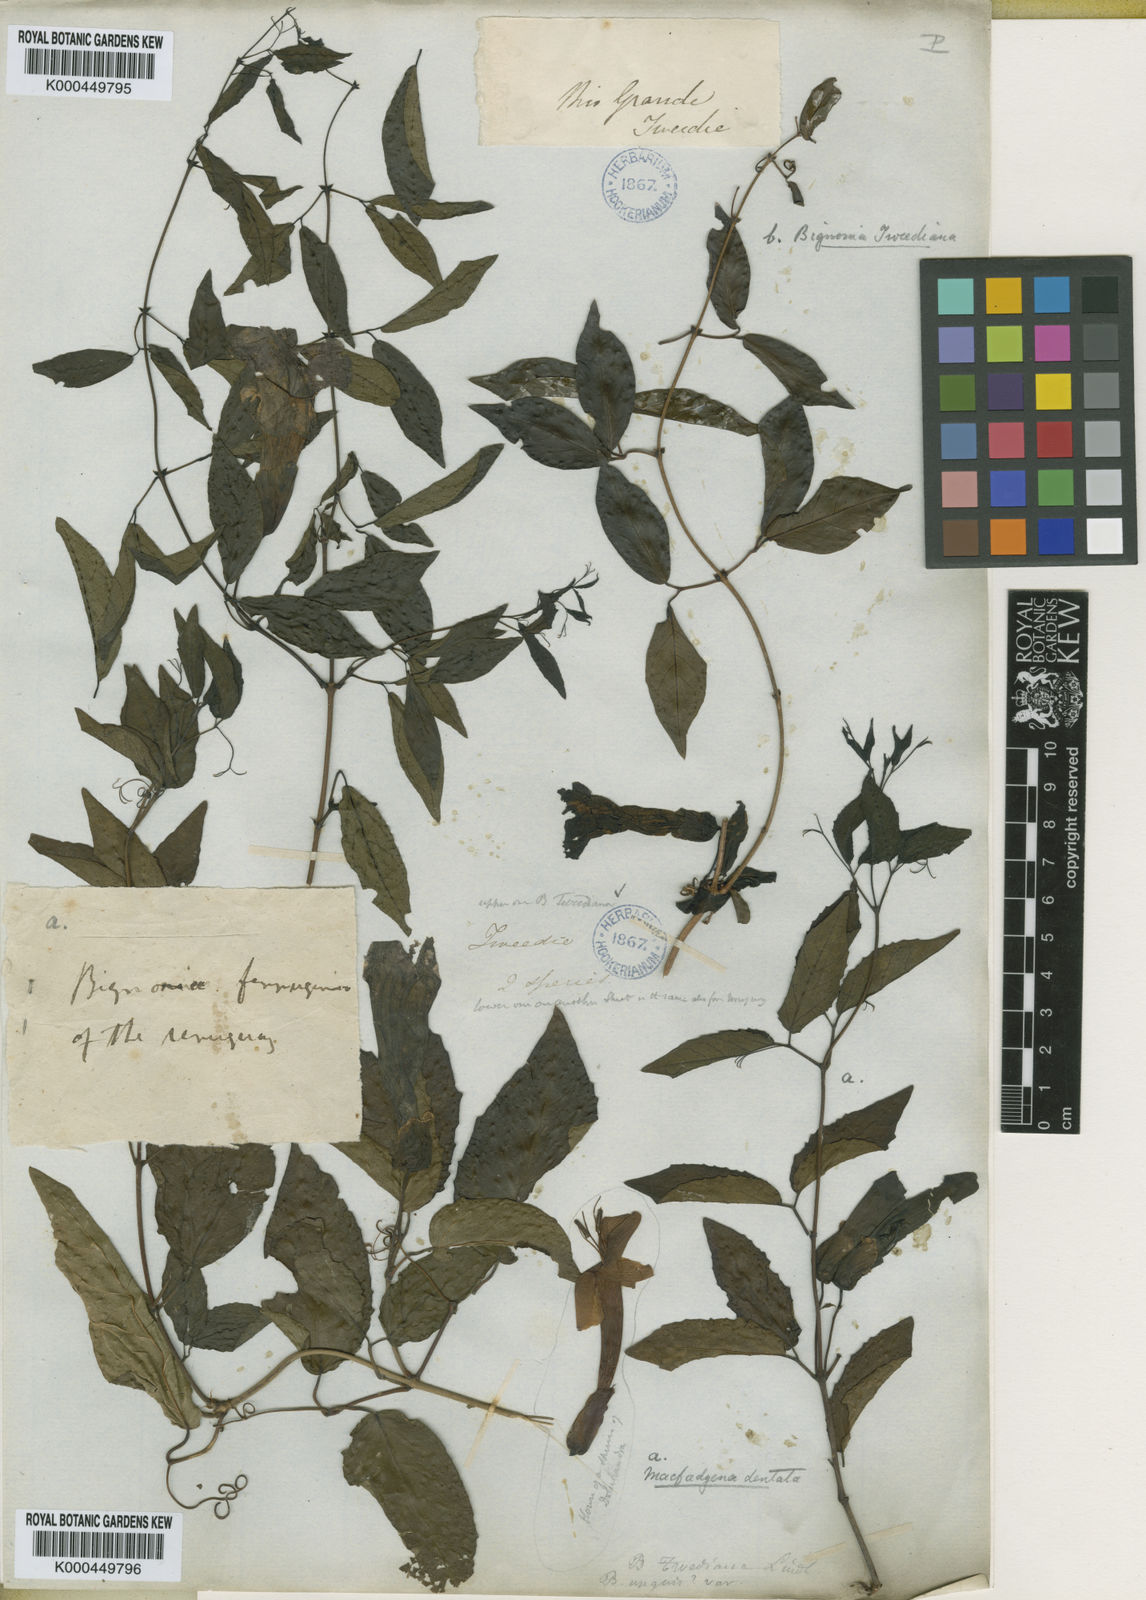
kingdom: Plantae
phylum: Tracheophyta
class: Magnoliopsida
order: Lamiales
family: Bignoniaceae
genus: Dolichandra
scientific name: Dolichandra dentata
